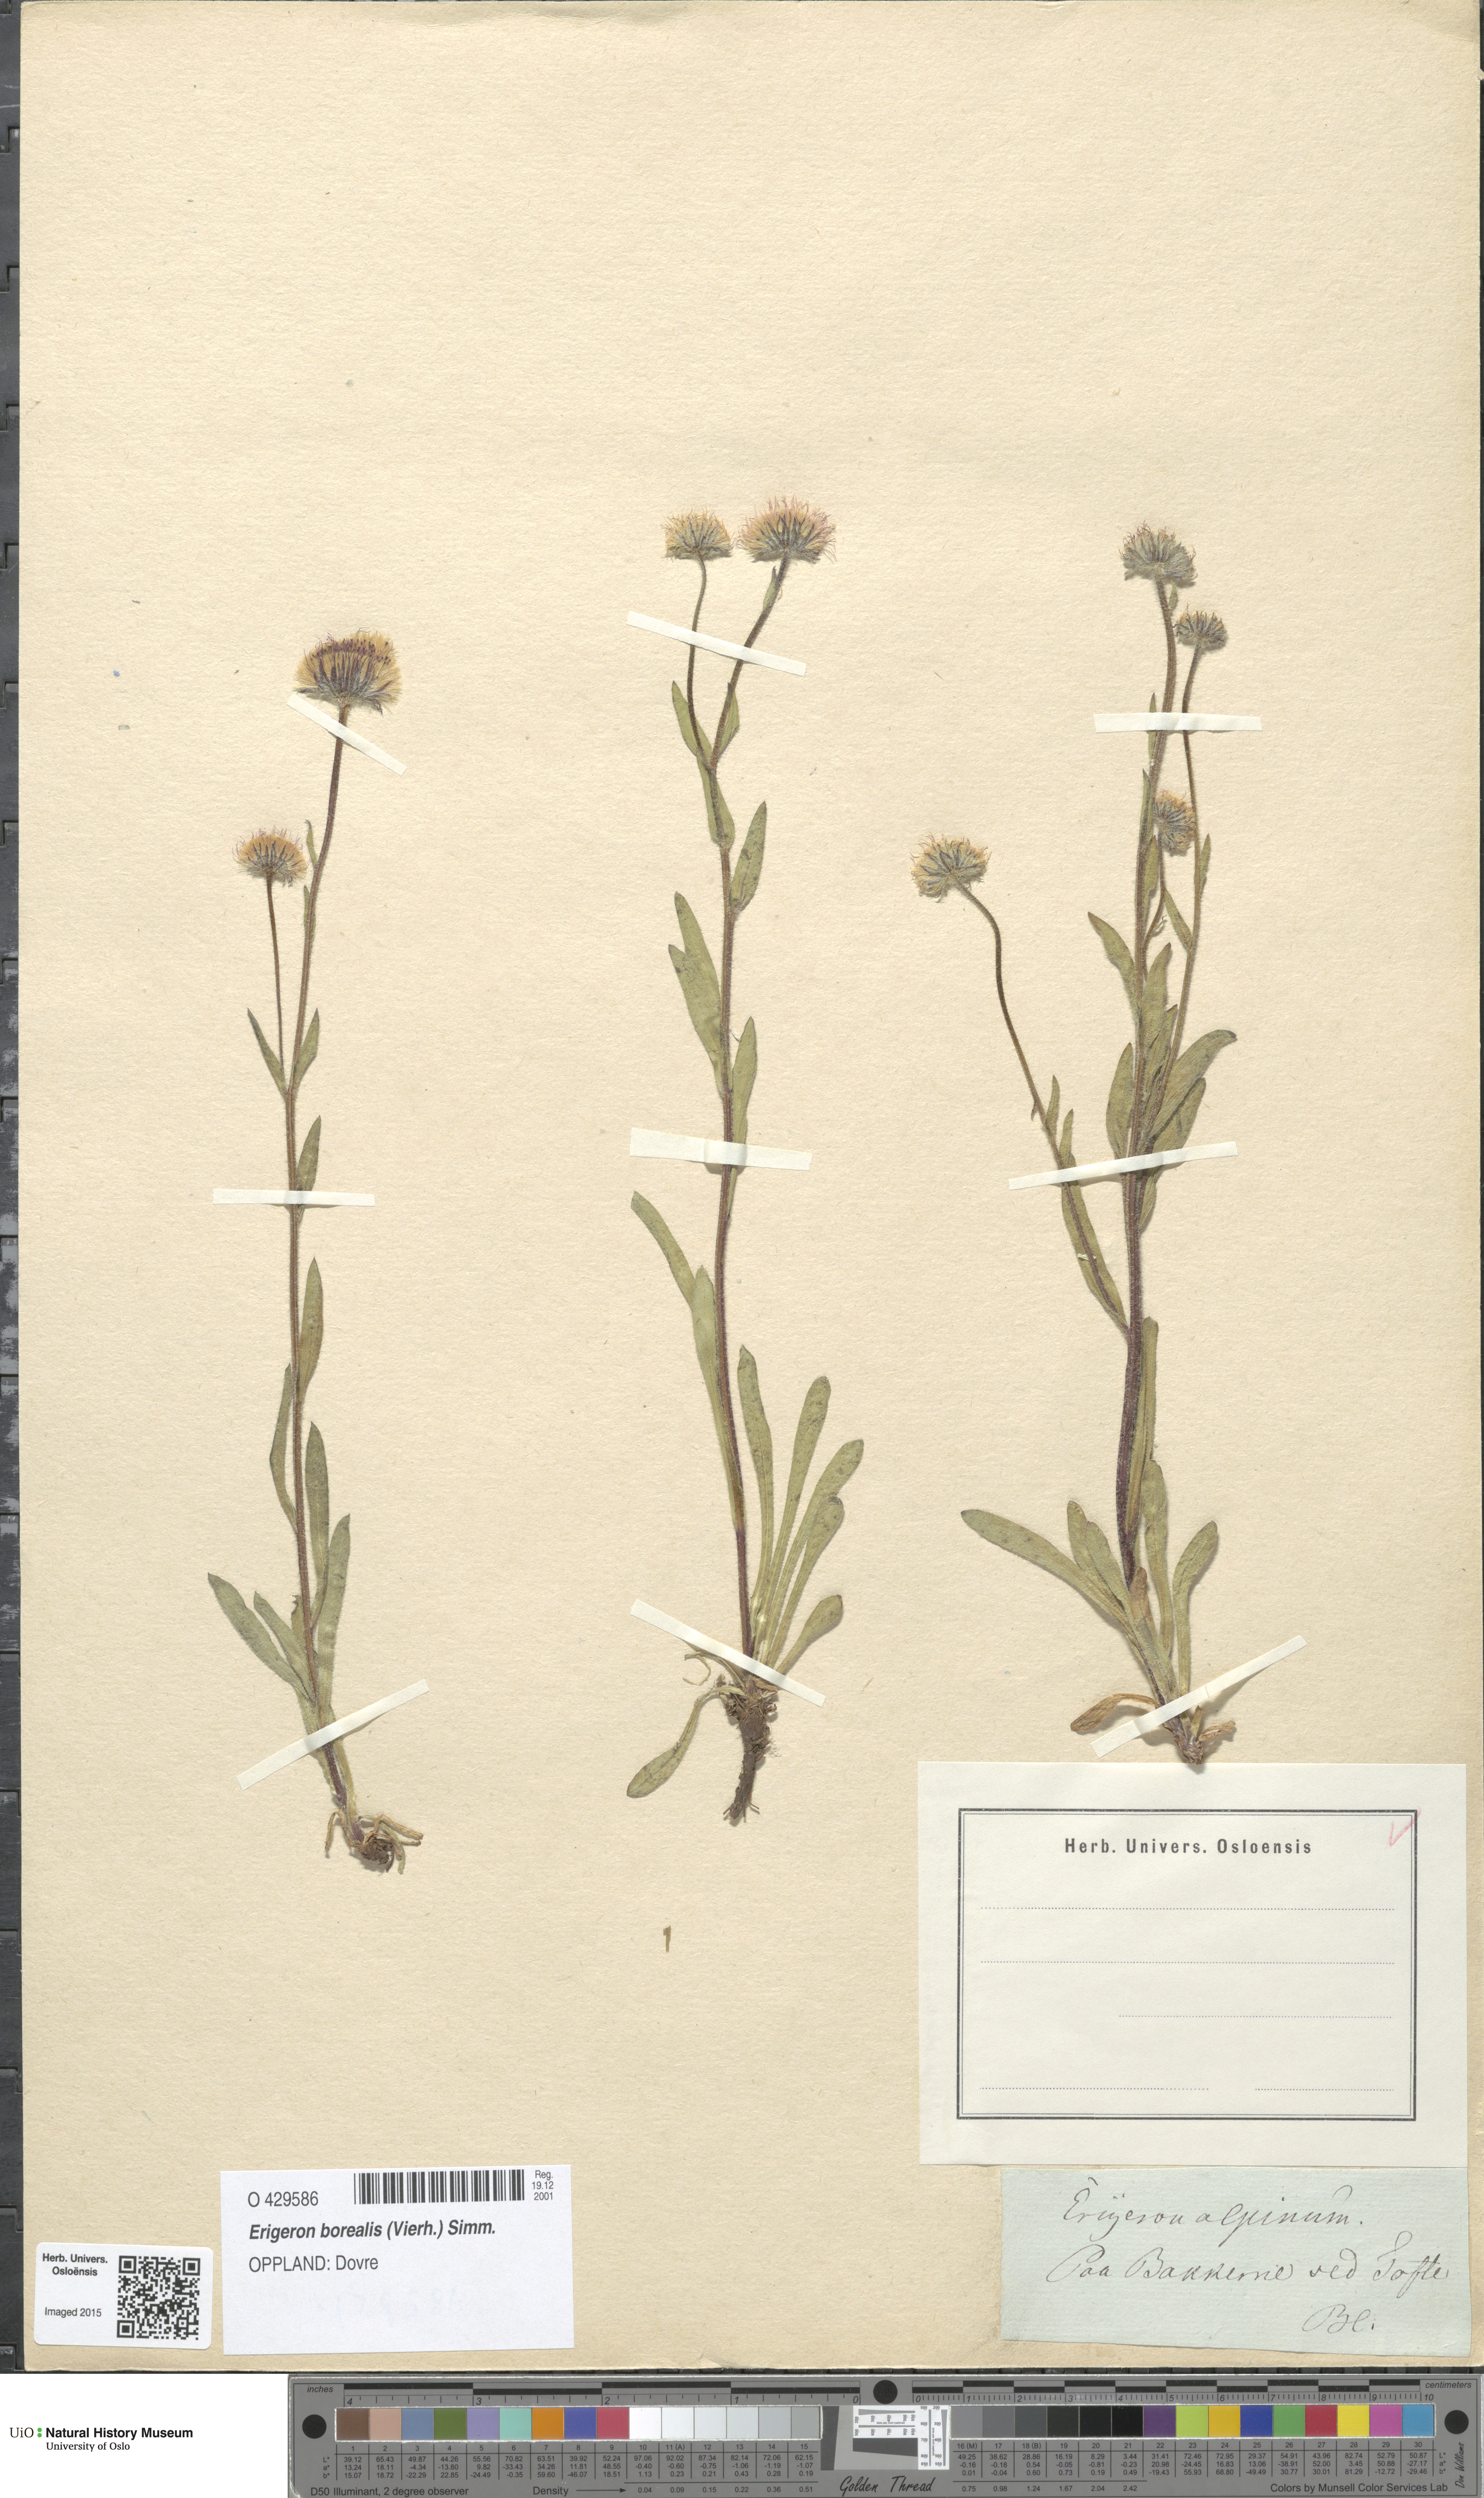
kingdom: Plantae
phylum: Tracheophyta
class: Magnoliopsida
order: Asterales
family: Asteraceae
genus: Erigeron
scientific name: Erigeron borealis
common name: Alpine fleabane
